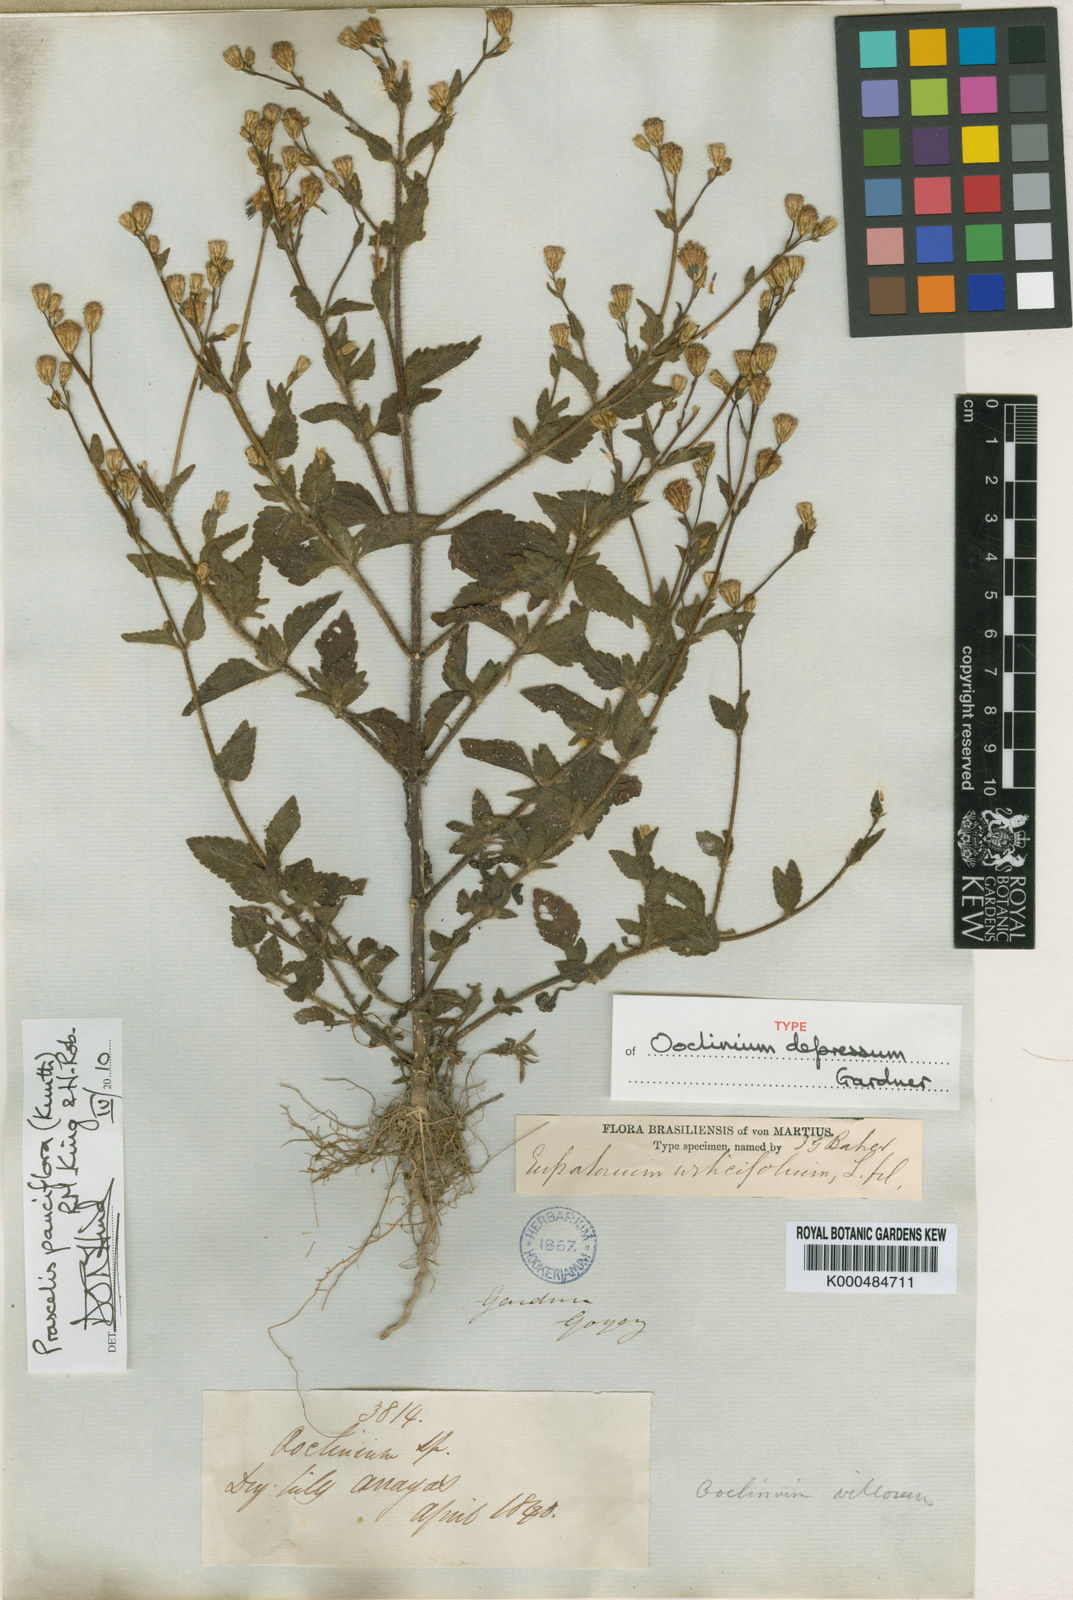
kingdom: Plantae
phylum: Tracheophyta
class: Magnoliopsida
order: Asterales
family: Asteraceae
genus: Praxelis
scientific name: Praxelis diffusa
